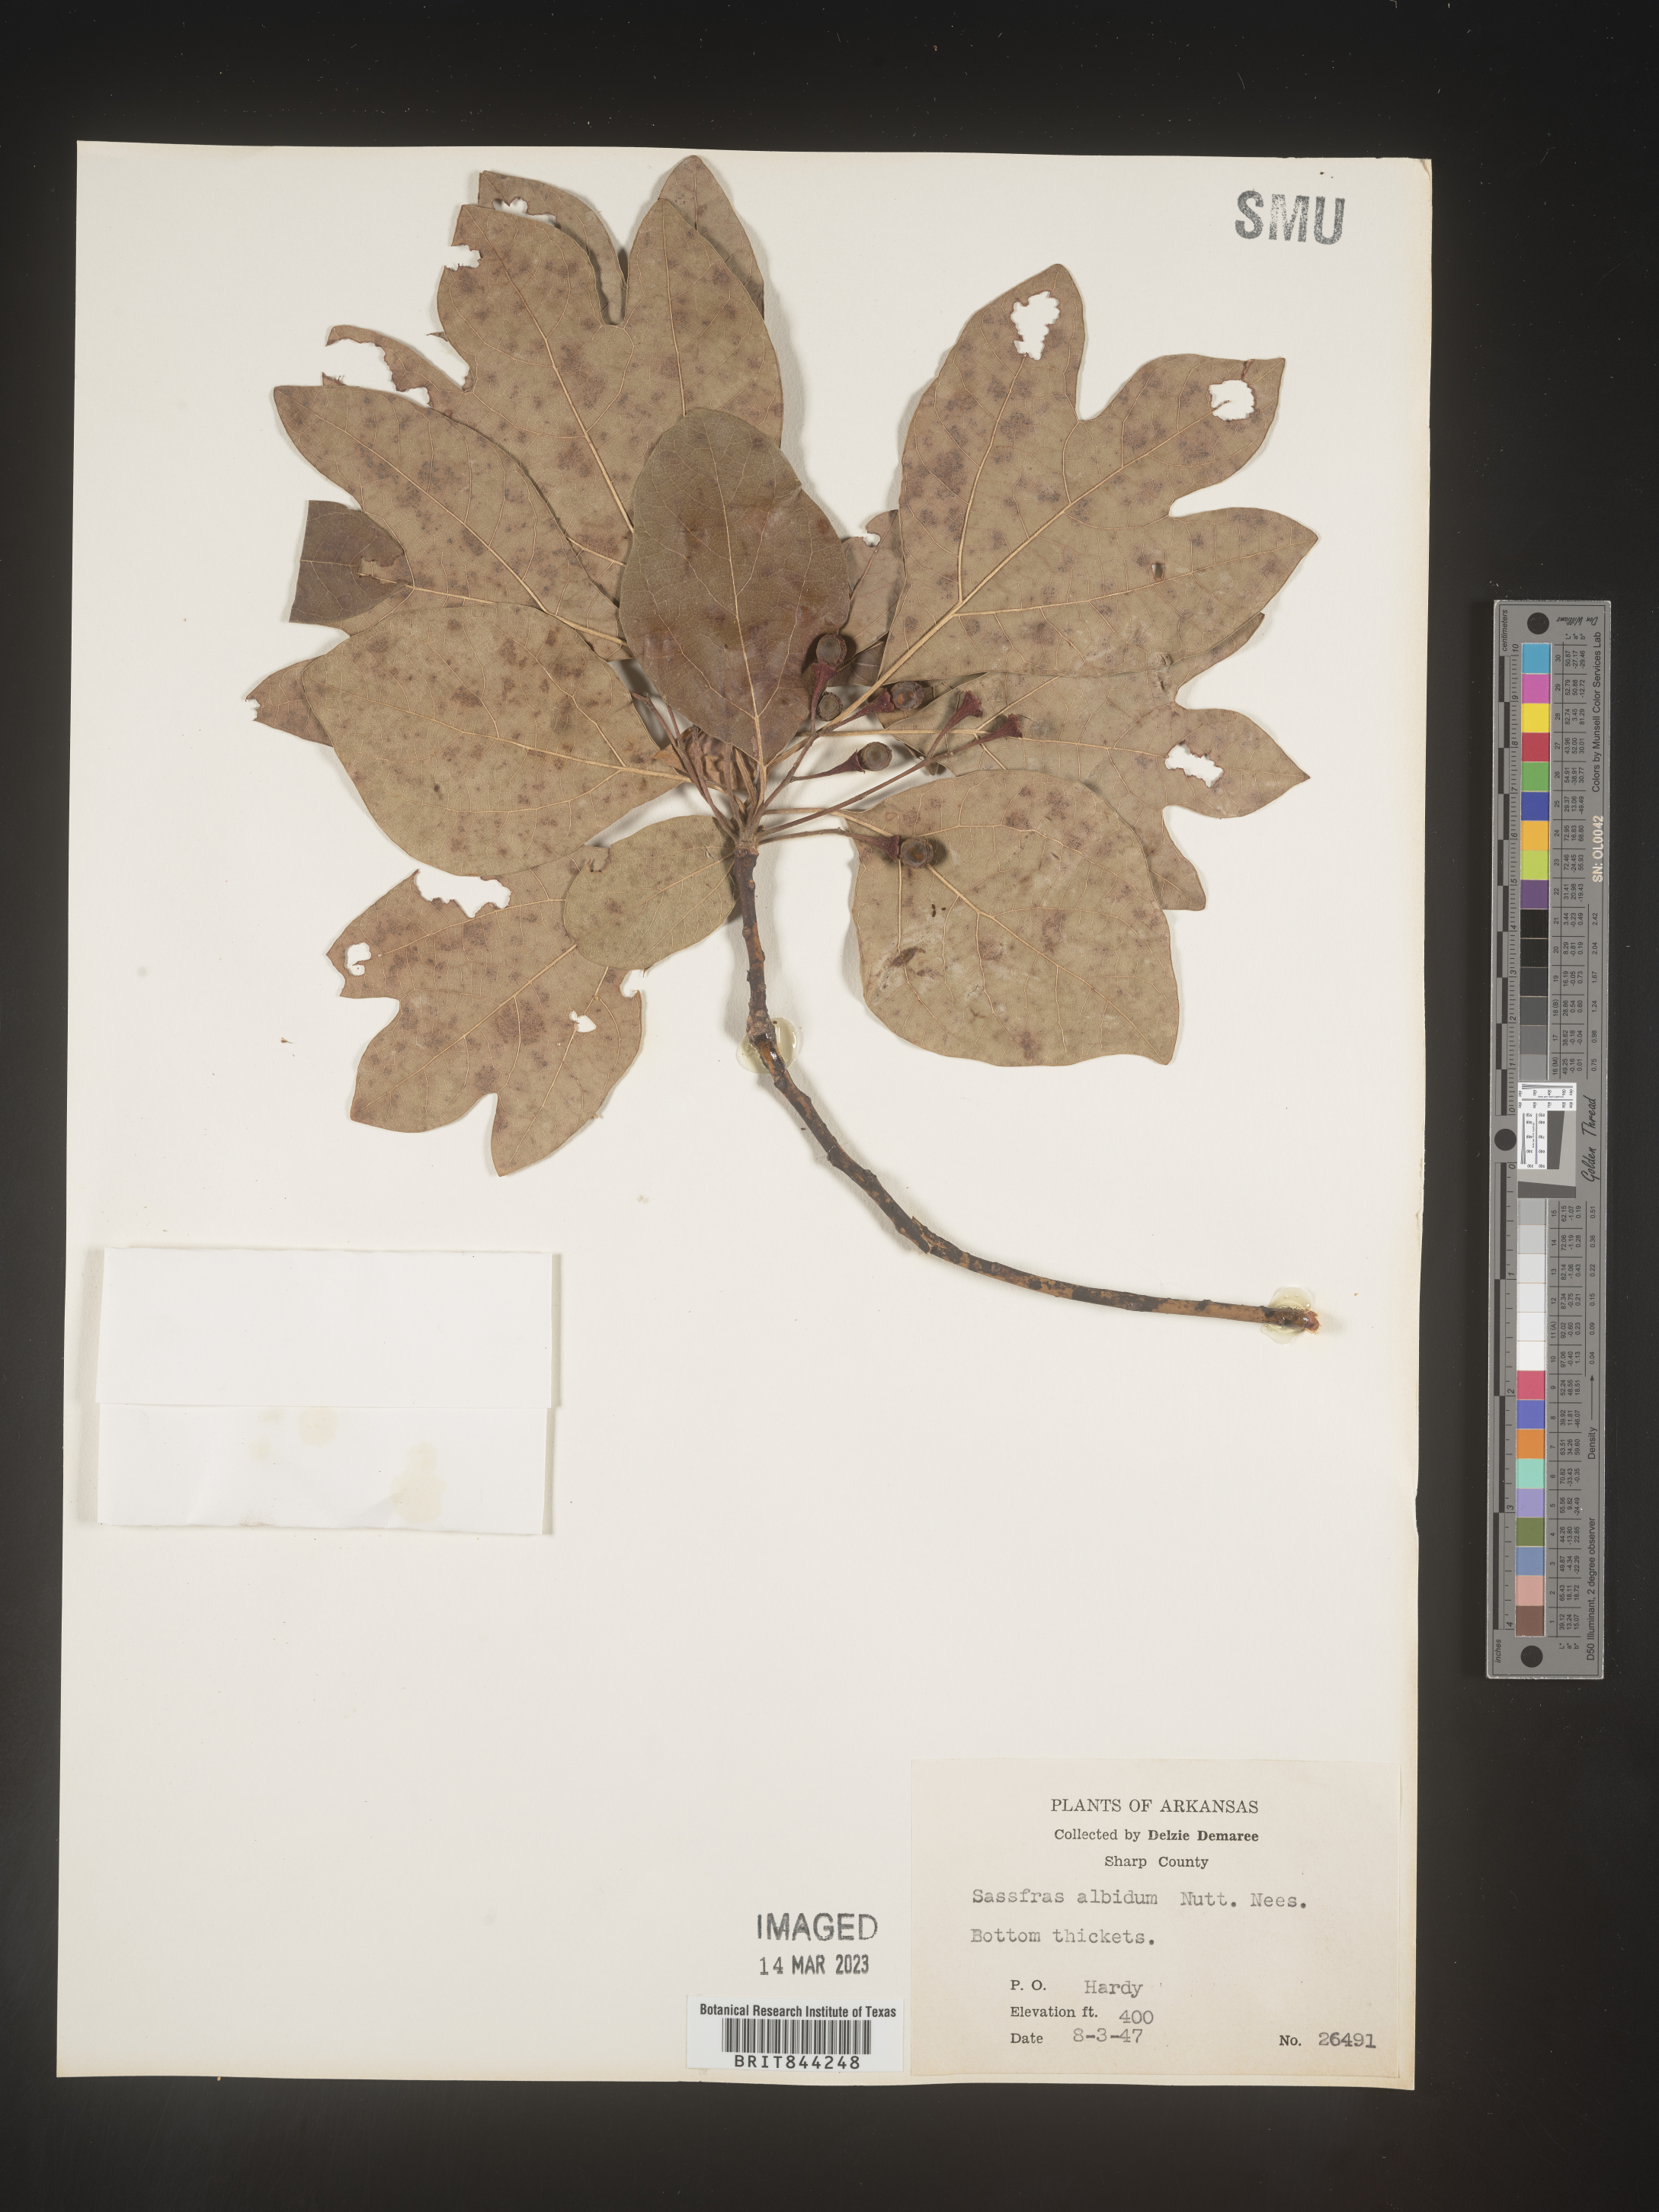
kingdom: Plantae
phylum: Tracheophyta
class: Magnoliopsida
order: Laurales
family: Lauraceae
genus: Sassafras
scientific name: Sassafras albidum
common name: Sassafras
